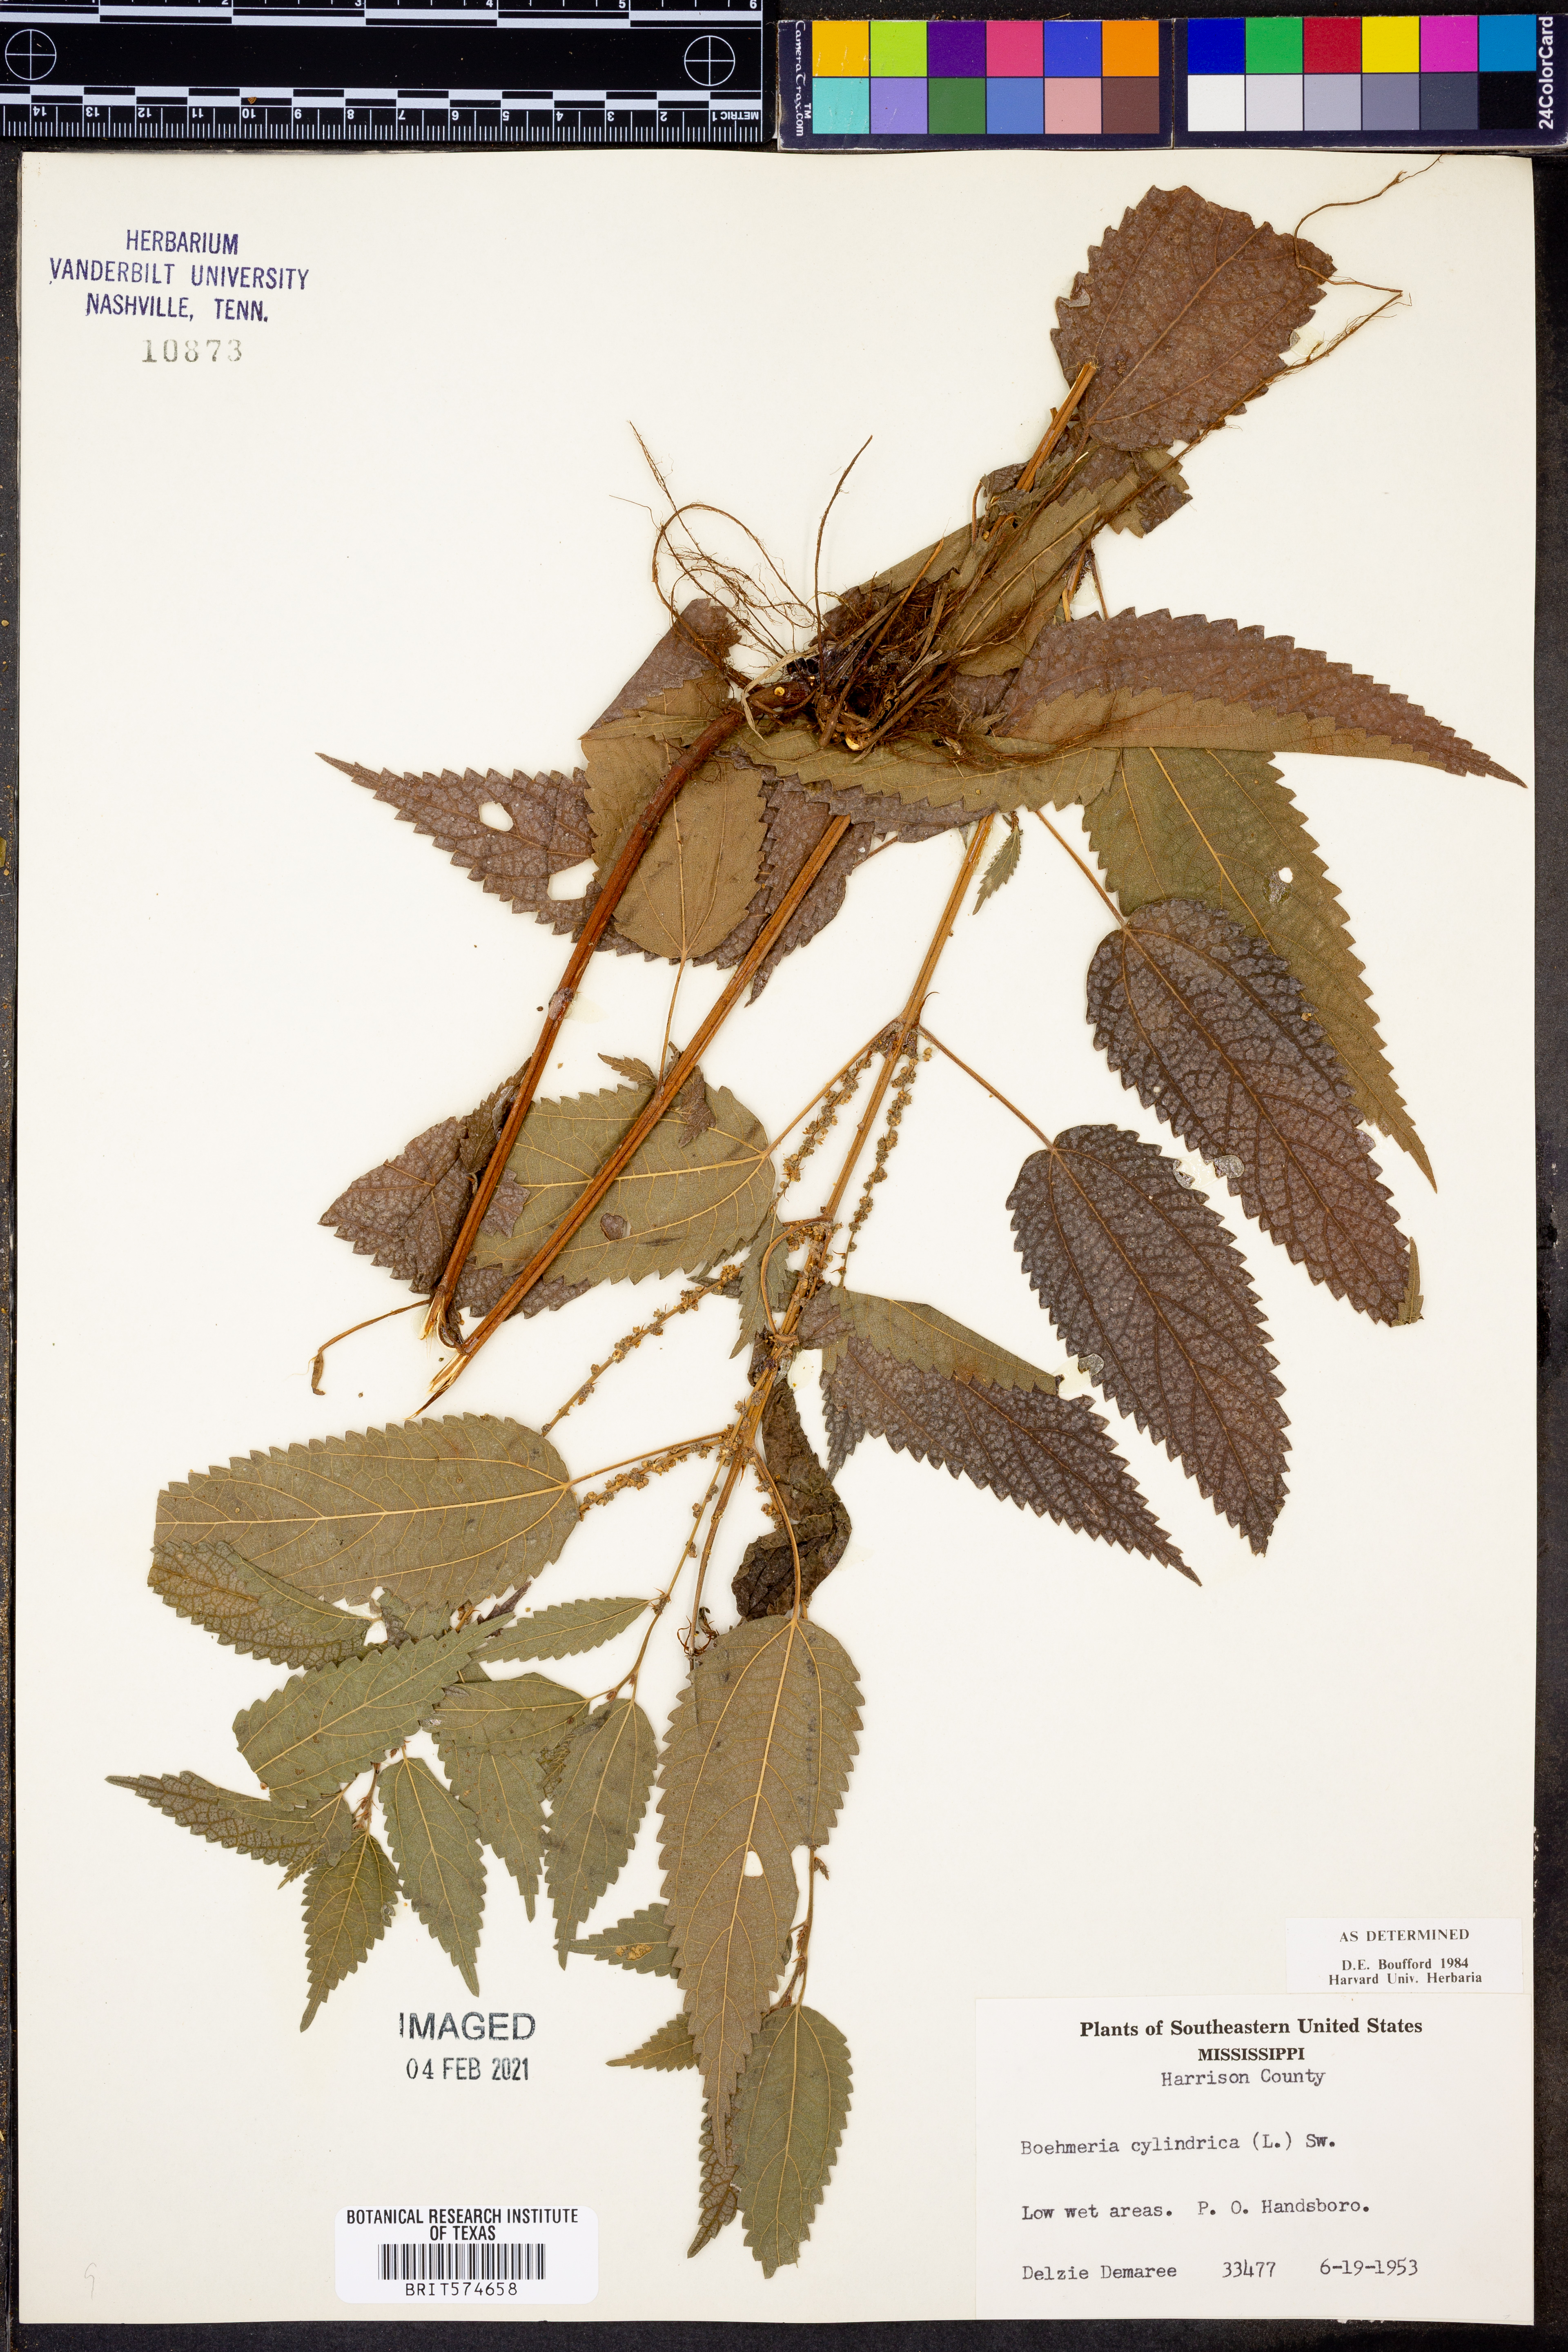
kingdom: Plantae
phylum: Tracheophyta
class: Magnoliopsida
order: Rosales
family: Urticaceae
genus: Boehmeria
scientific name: Boehmeria cylindrica
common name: Bog-hemp
